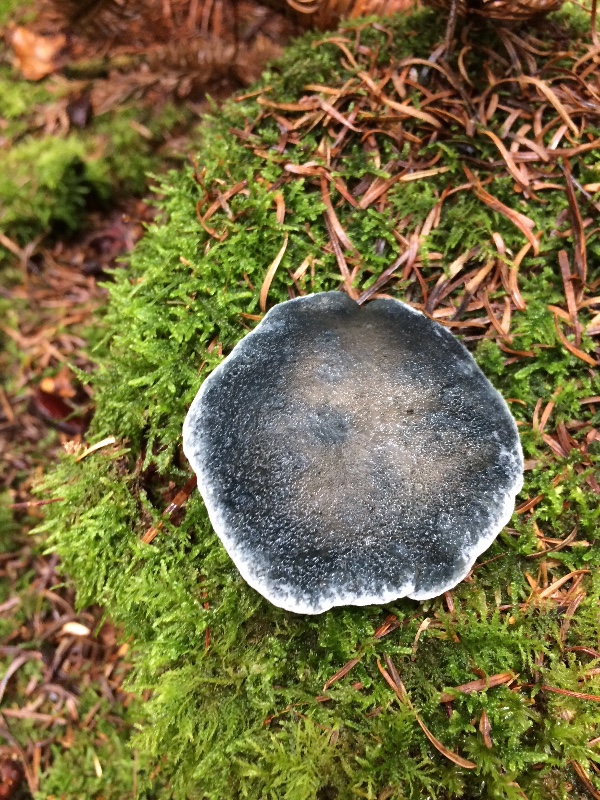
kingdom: Fungi
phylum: Basidiomycota
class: Agaricomycetes
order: Polyporales
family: Polyporaceae
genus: Cyanosporus
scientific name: Cyanosporus caesius
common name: blålig kødporesvamp
